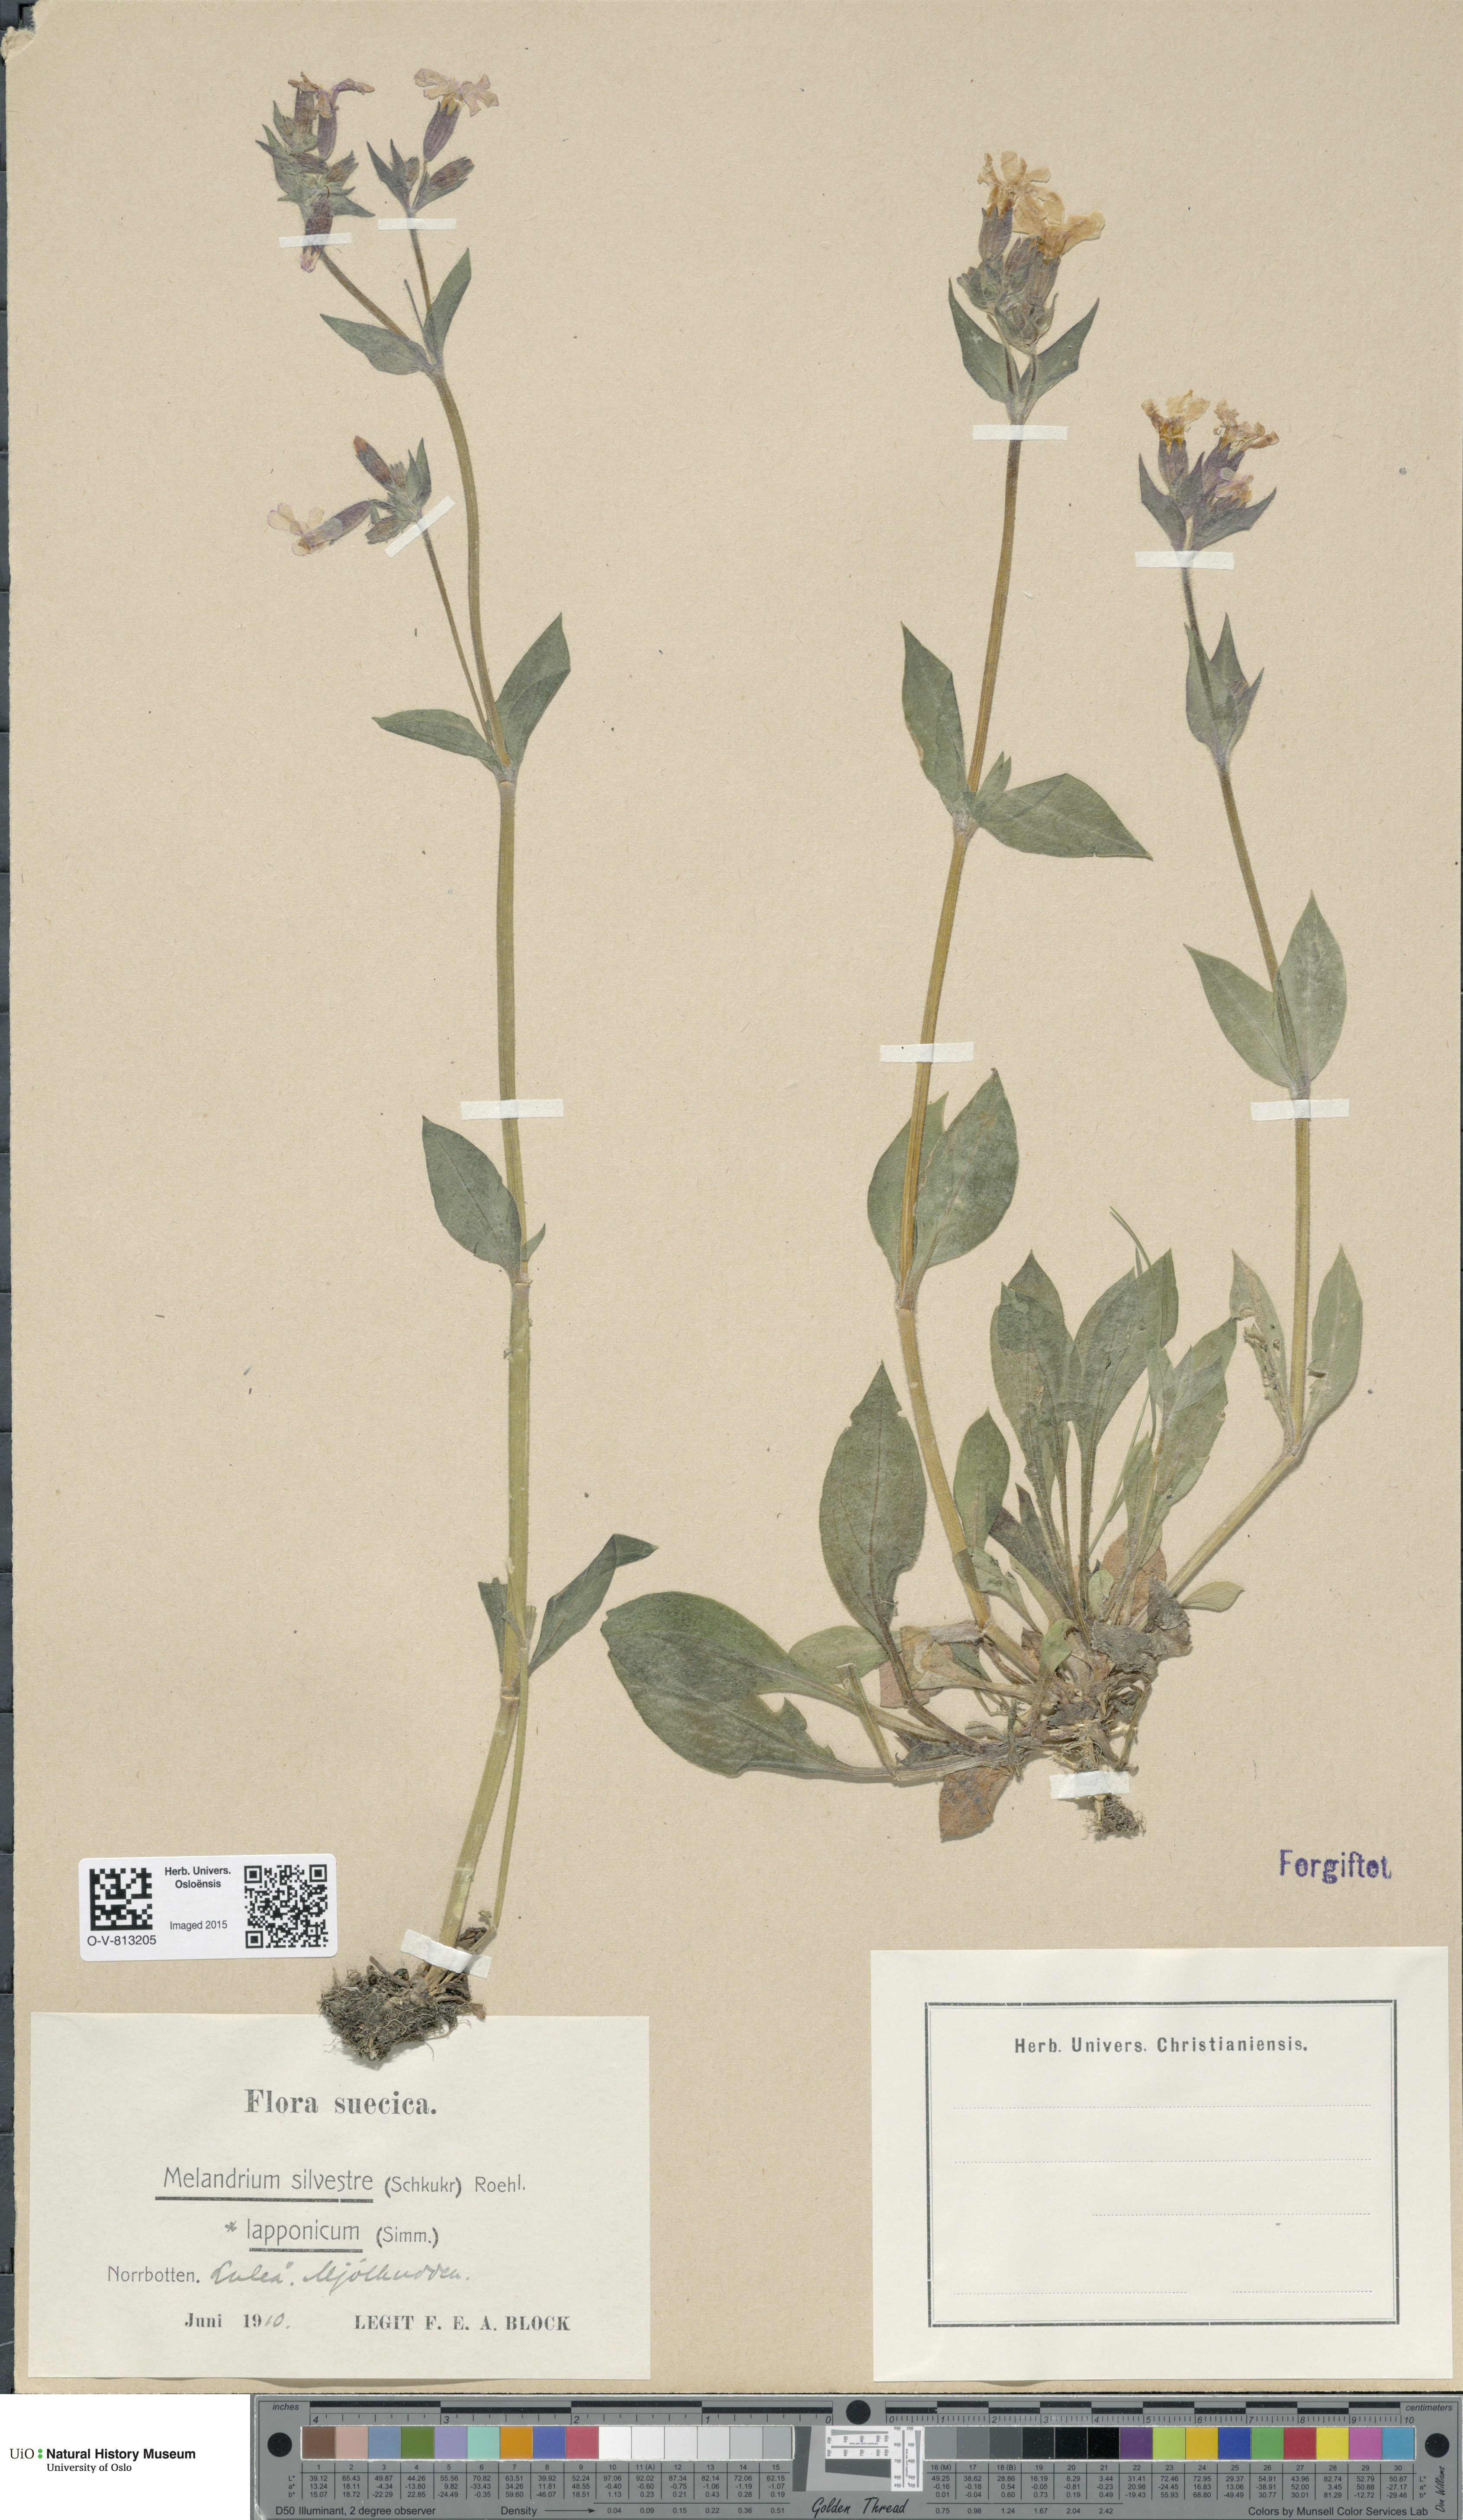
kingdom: Plantae
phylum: Tracheophyta
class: Magnoliopsida
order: Caryophyllales
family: Caryophyllaceae
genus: Silene
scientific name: Silene dioica
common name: Red campion
